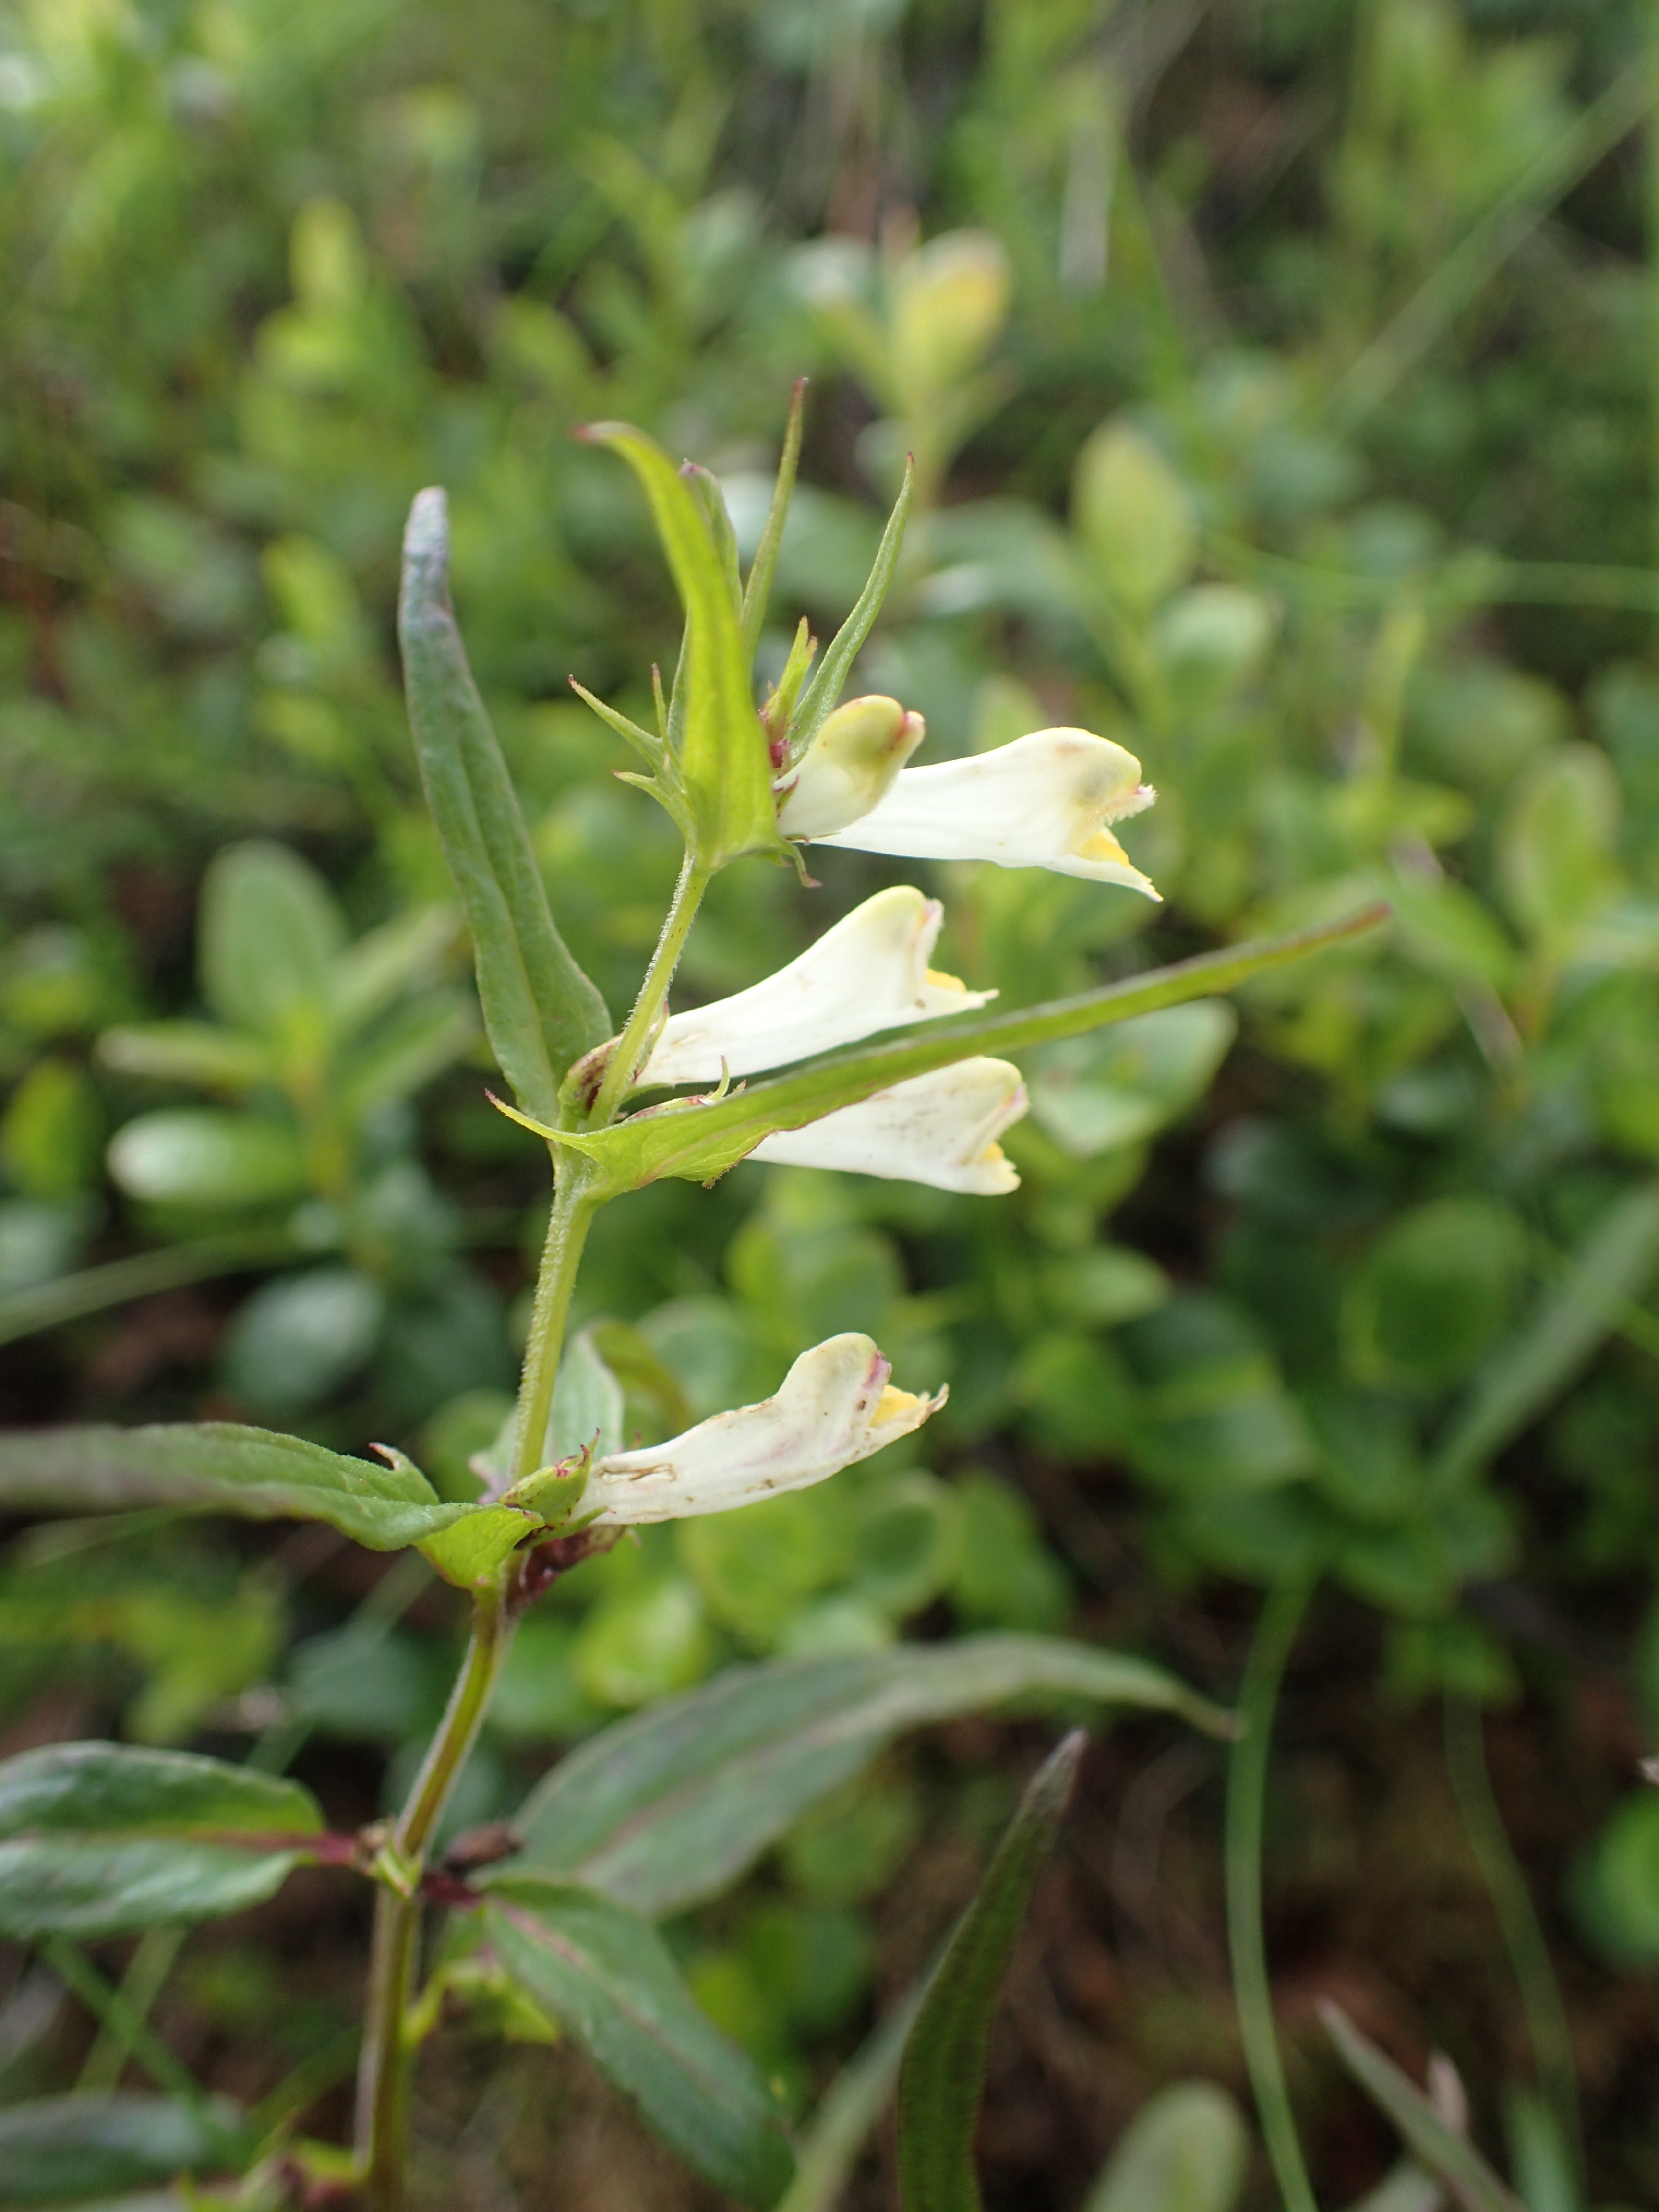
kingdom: Plantae
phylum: Tracheophyta
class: Magnoliopsida
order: Lamiales
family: Orobanchaceae
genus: Melampyrum
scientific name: Melampyrum pratense
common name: Common cow-wheat
